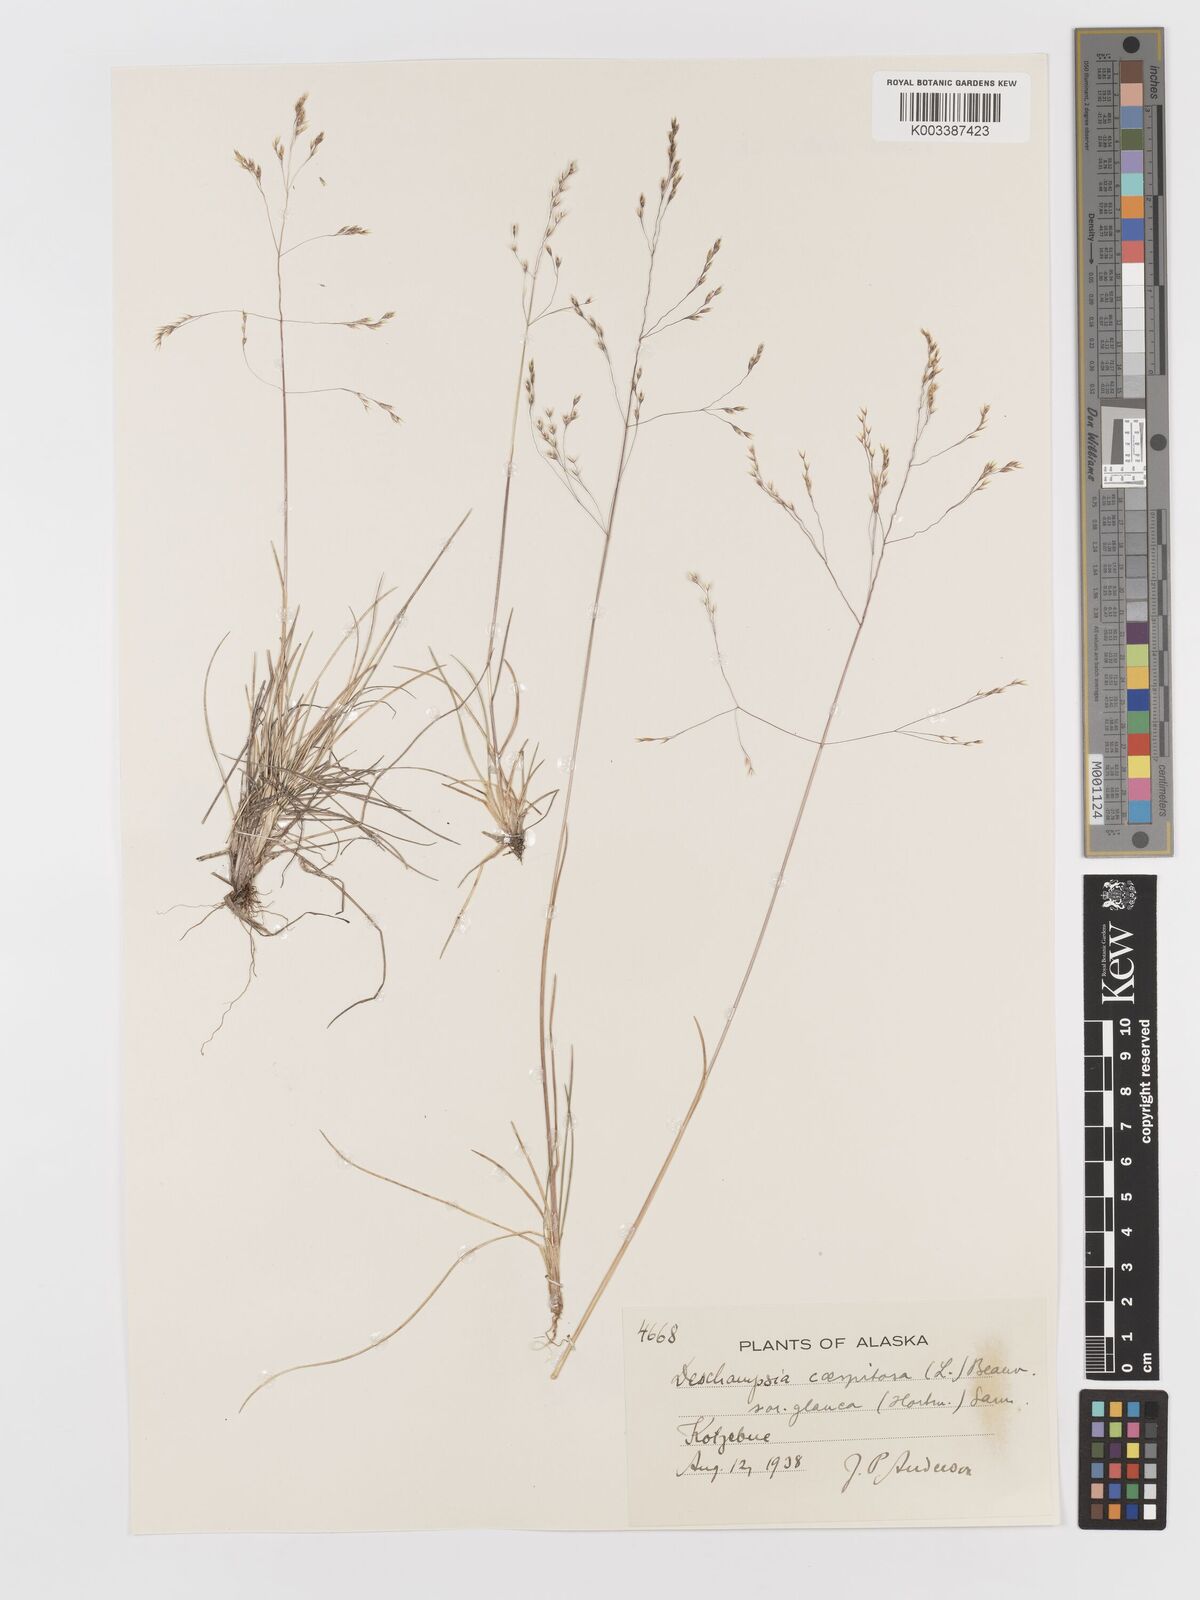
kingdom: Plantae
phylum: Tracheophyta
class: Liliopsida
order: Poales
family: Poaceae
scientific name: Poaceae
